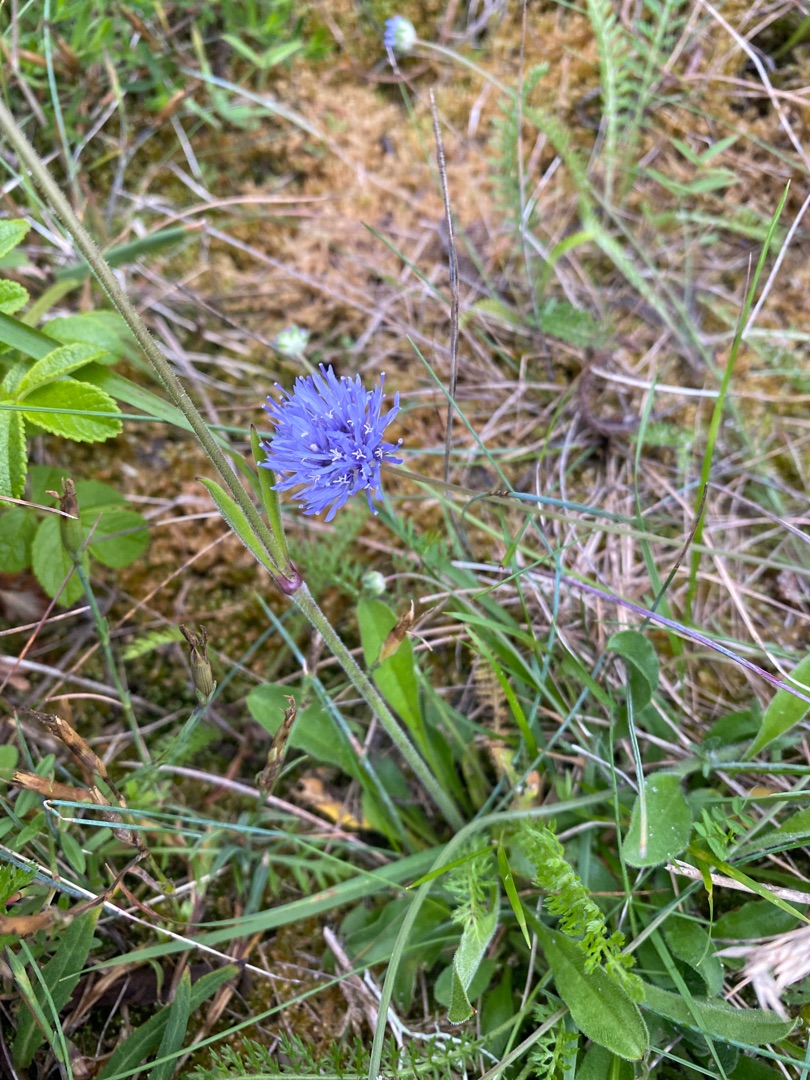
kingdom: Plantae
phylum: Tracheophyta
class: Magnoliopsida
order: Asterales
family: Campanulaceae
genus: Jasione
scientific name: Jasione montana
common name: Blåmunke
